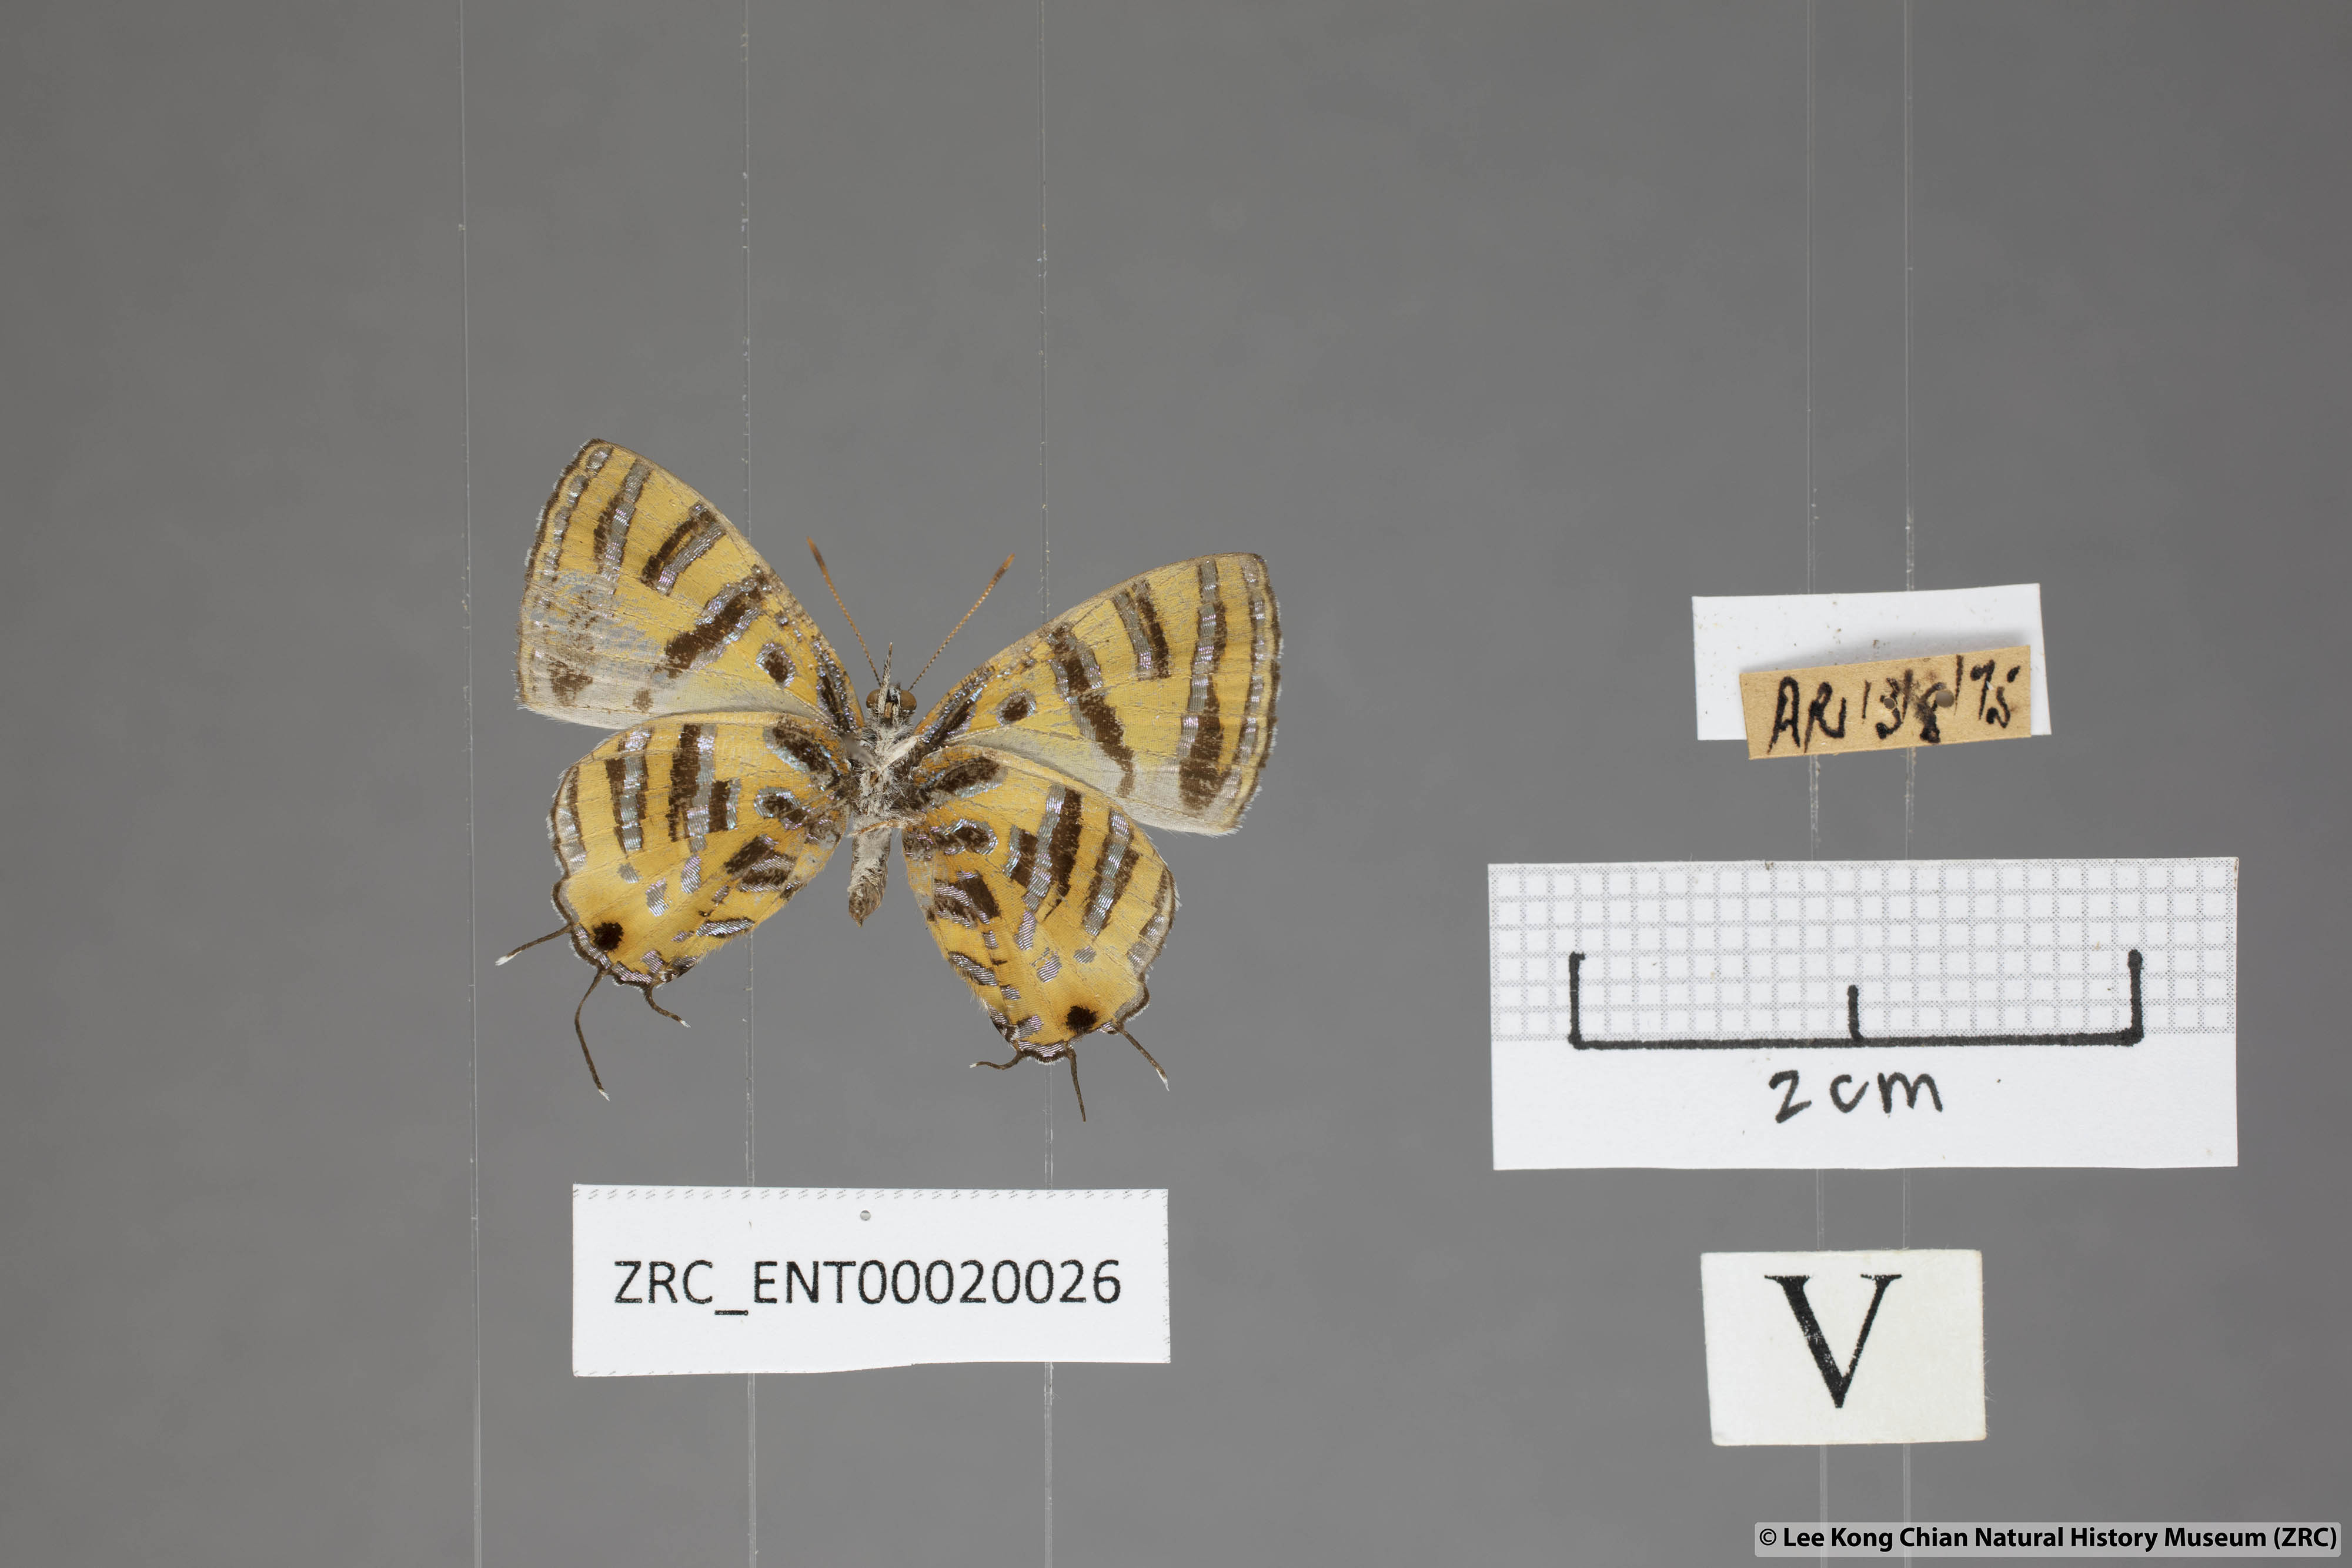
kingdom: Animalia
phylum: Arthropoda
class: Insecta
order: Lepidoptera
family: Lycaenidae
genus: Catapaecilma
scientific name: Catapaecilma subochrea
